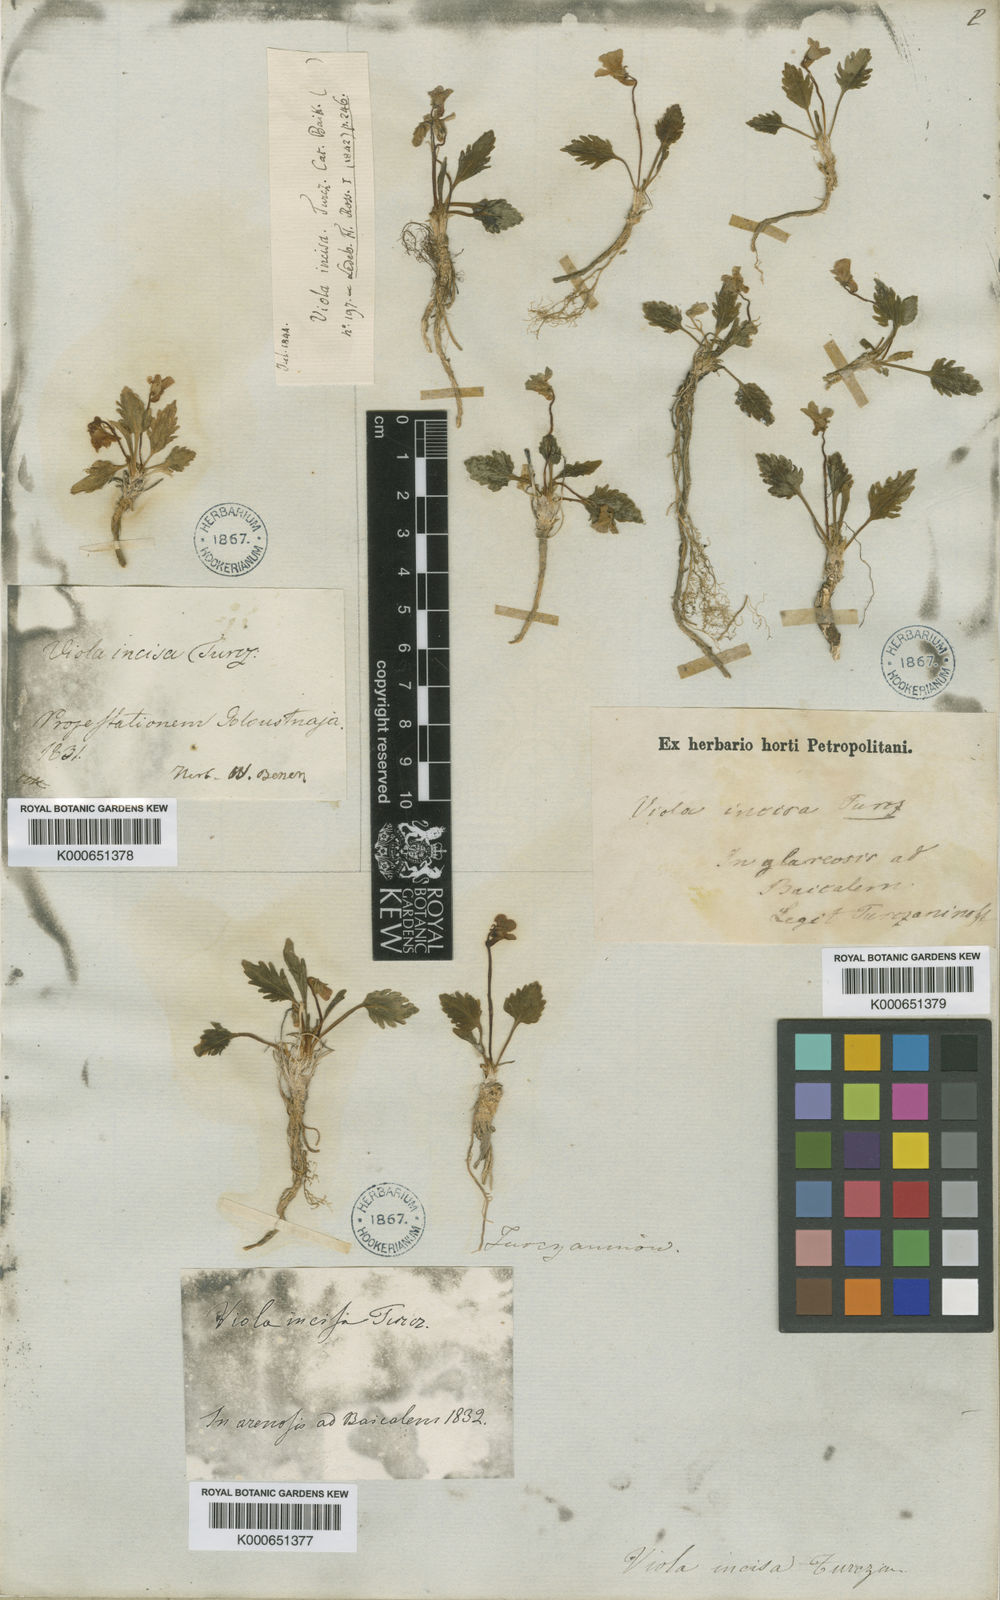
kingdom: Plantae
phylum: Tracheophyta
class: Magnoliopsida
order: Malpighiales
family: Violaceae
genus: Viola
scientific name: Viola incisa
